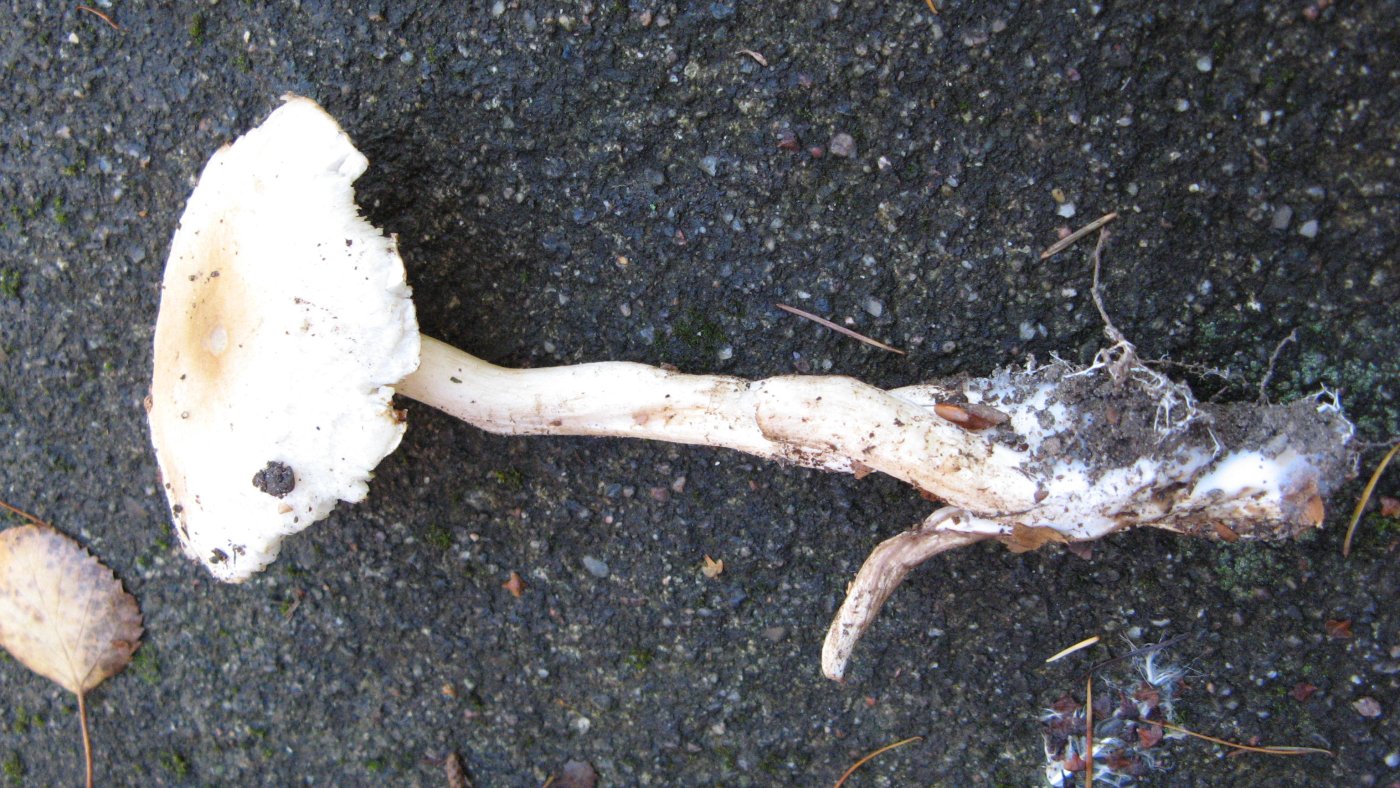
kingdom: Fungi
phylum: Basidiomycota
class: Agaricomycetes
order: Agaricales
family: Tricholomataceae
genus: Tricholoma
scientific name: Tricholoma lascivum
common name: stinkende ridderhat
